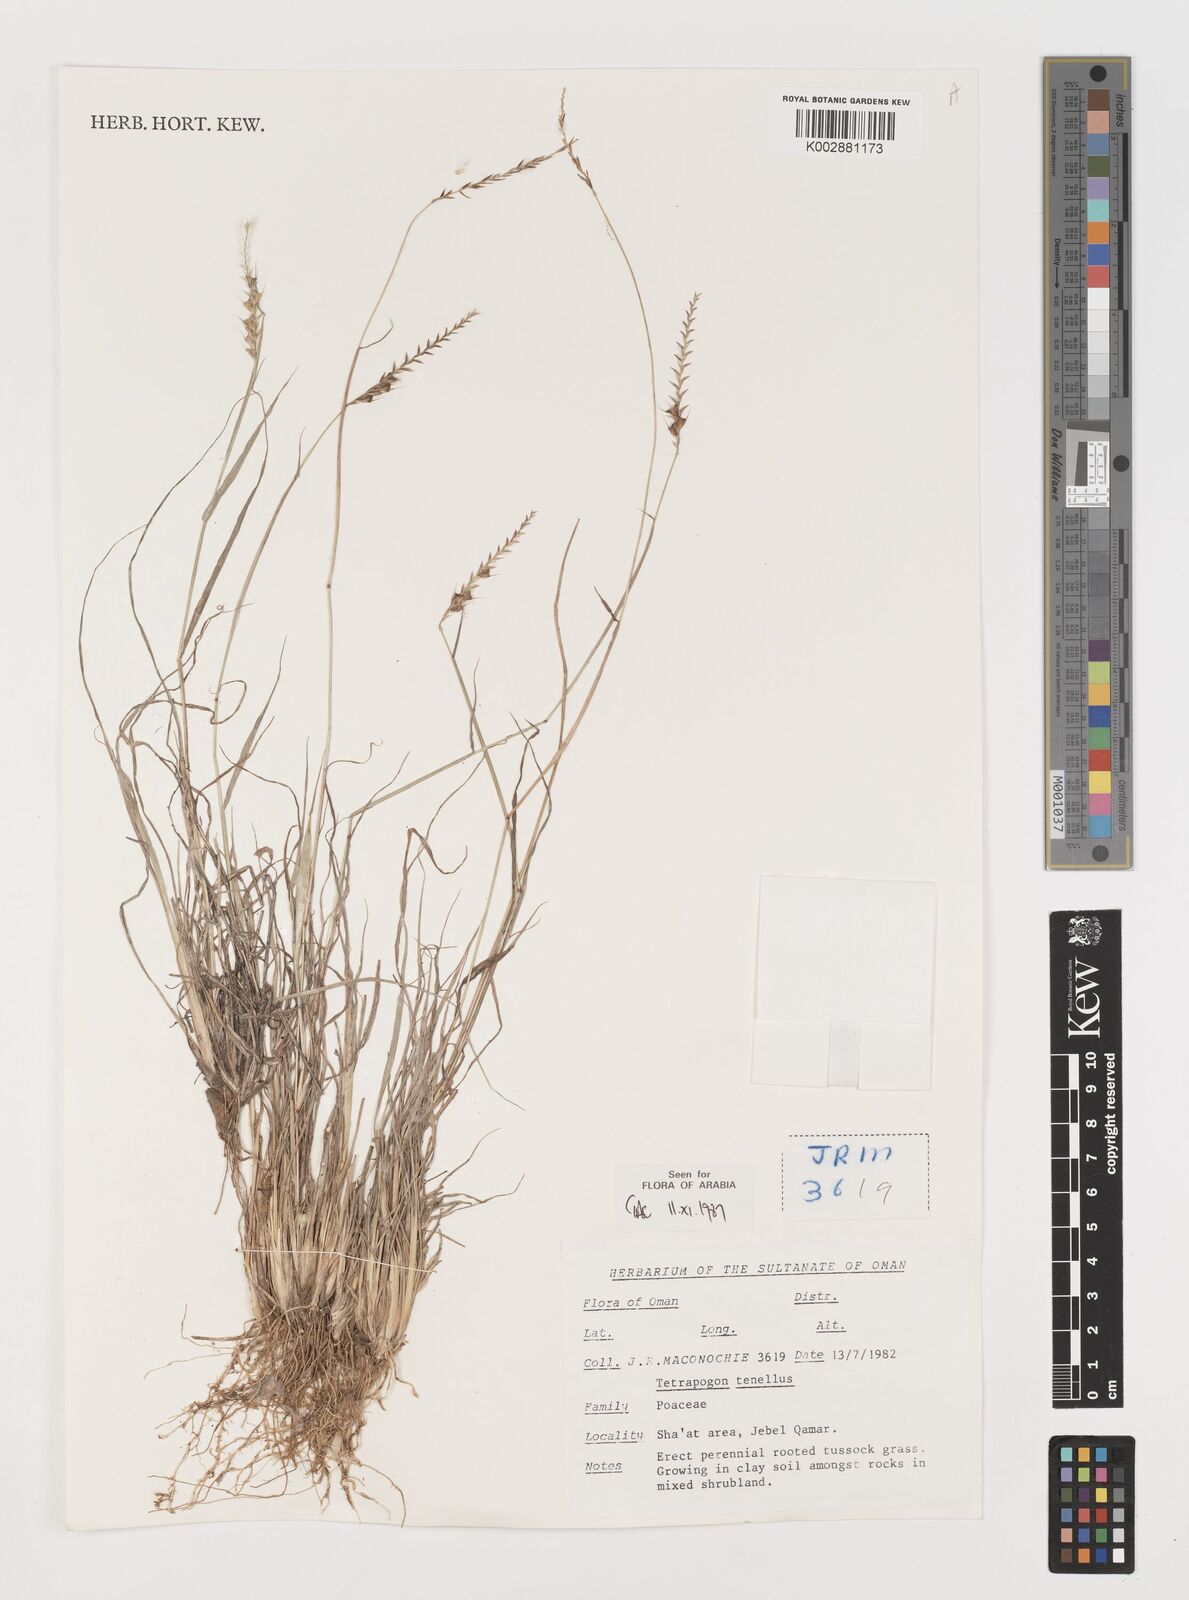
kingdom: Plantae
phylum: Tracheophyta
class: Liliopsida
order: Poales
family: Poaceae
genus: Tetrapogon
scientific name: Tetrapogon tenellus
